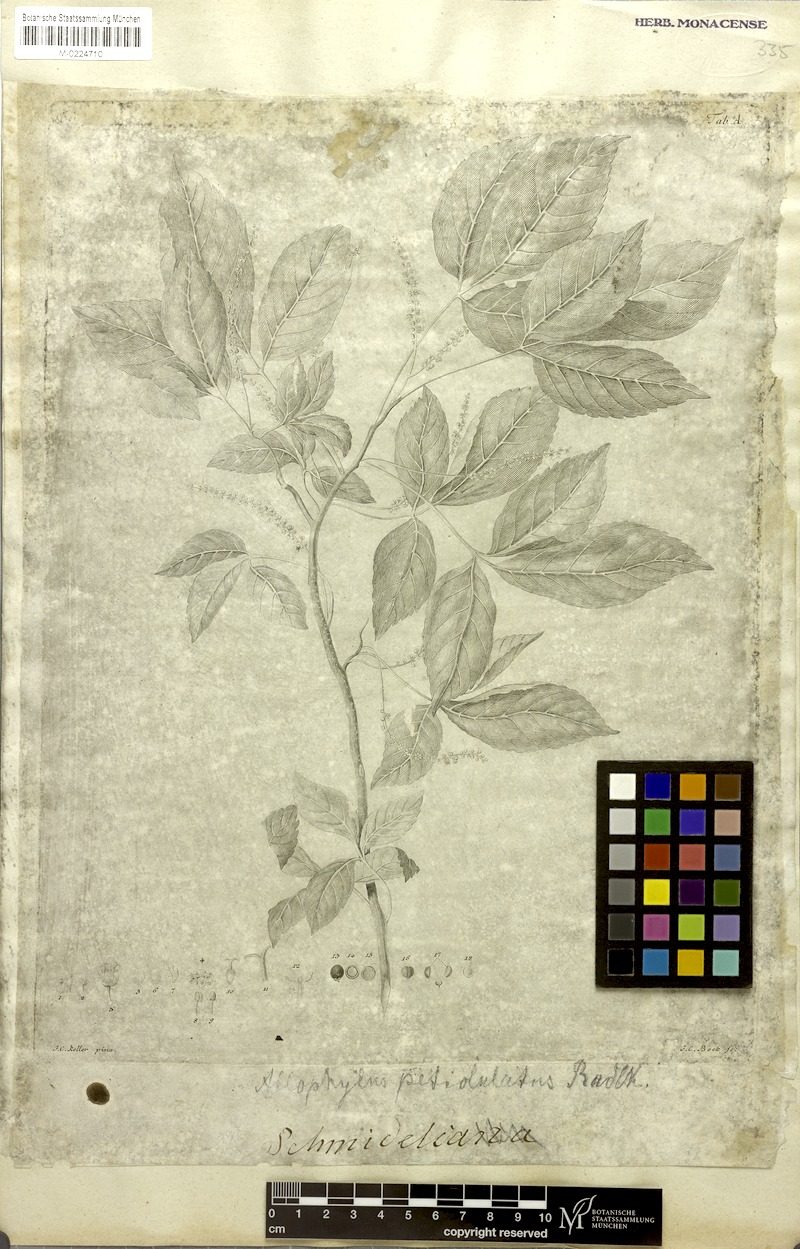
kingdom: Plantae
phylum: Tracheophyta
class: Magnoliopsida
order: Sapindales
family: Sapindaceae
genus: Allophylus
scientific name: Allophylus petiolulatus
